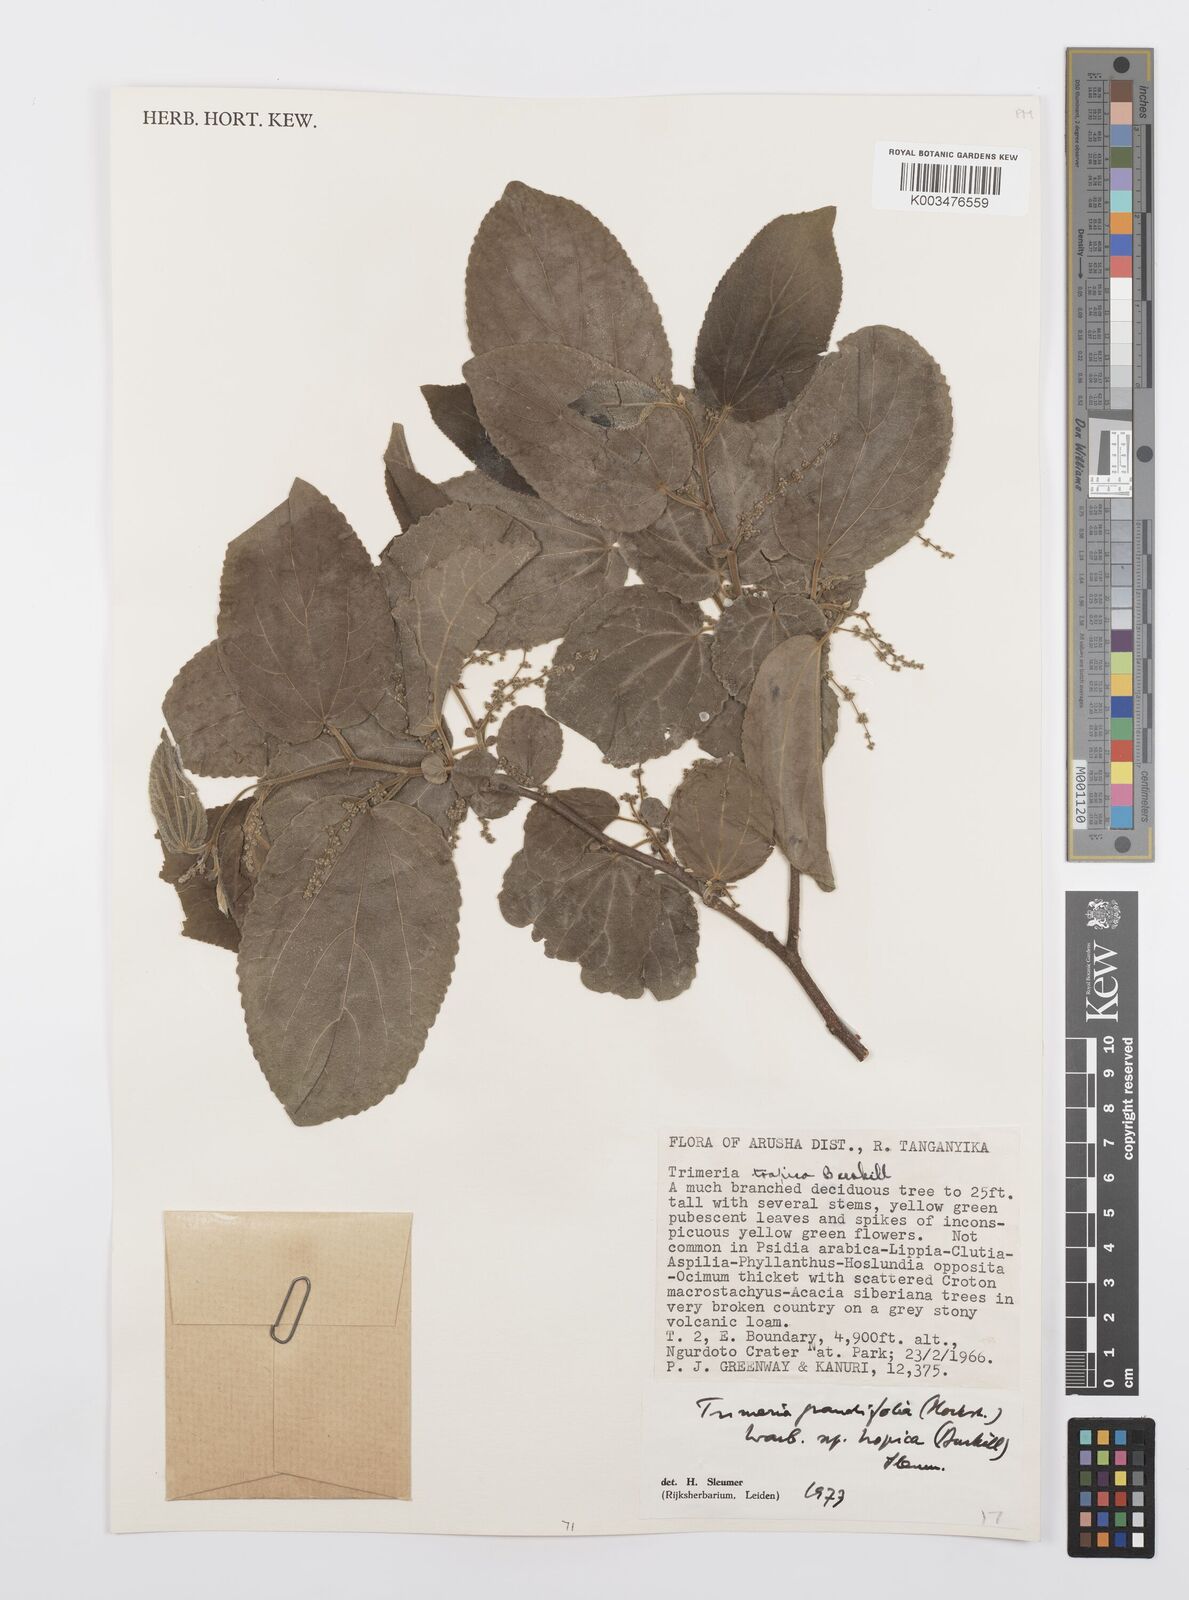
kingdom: Plantae
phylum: Tracheophyta
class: Magnoliopsida
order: Malpighiales
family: Salicaceae
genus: Trimeria
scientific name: Trimeria grandifolia
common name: Wild mulberry
